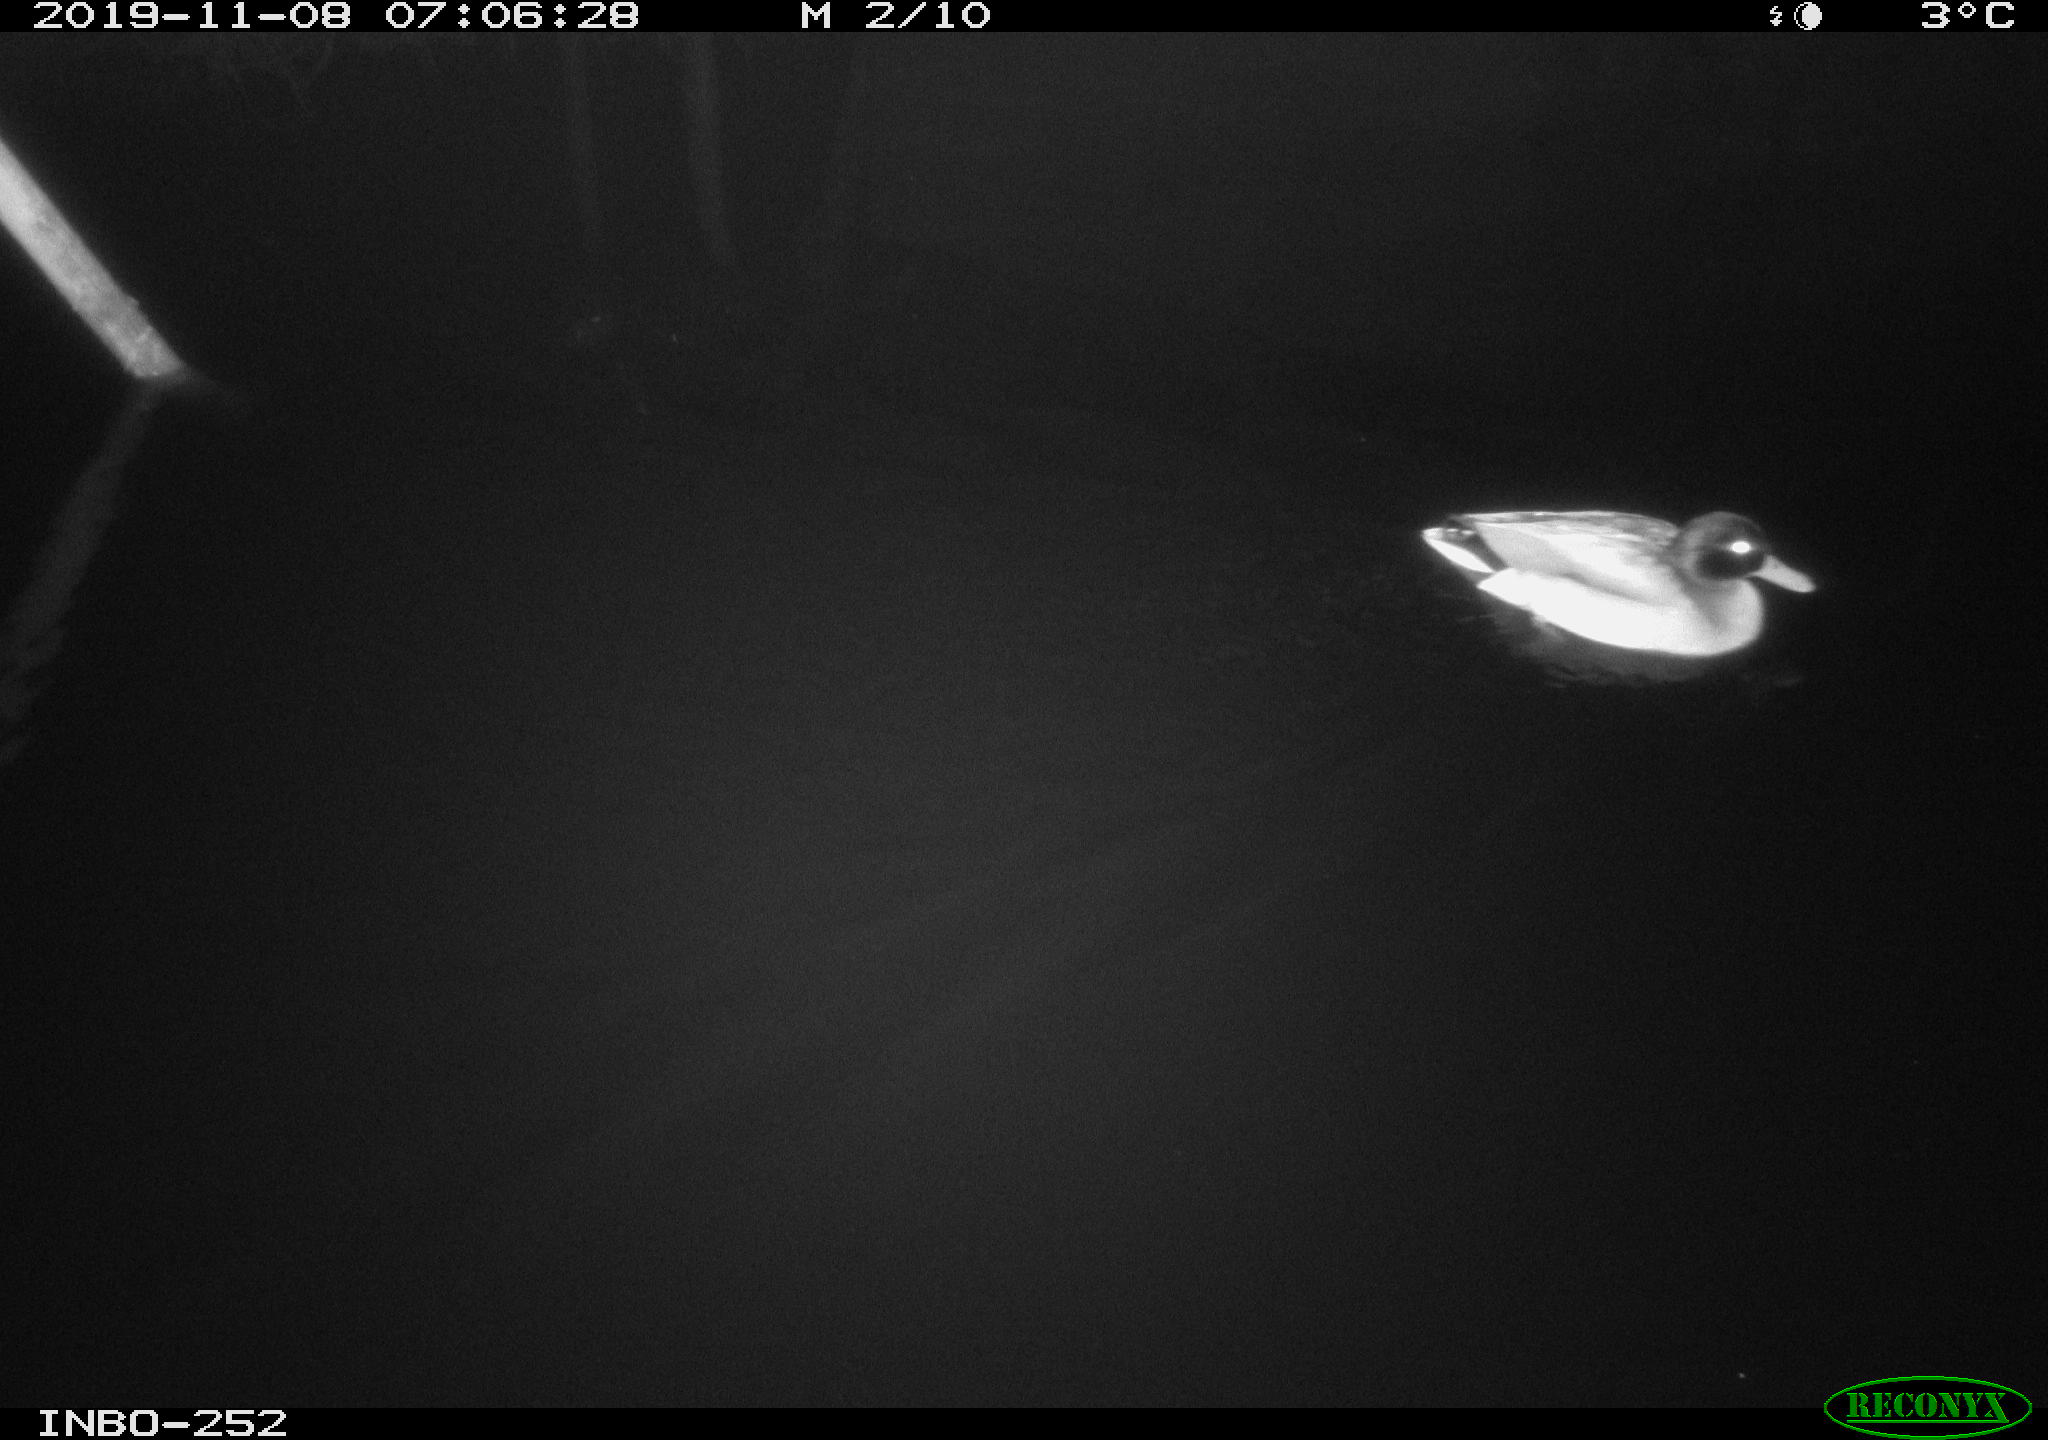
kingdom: Animalia
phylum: Chordata
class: Aves
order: Anseriformes
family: Anatidae
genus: Anas
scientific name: Anas platyrhynchos
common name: Mallard
